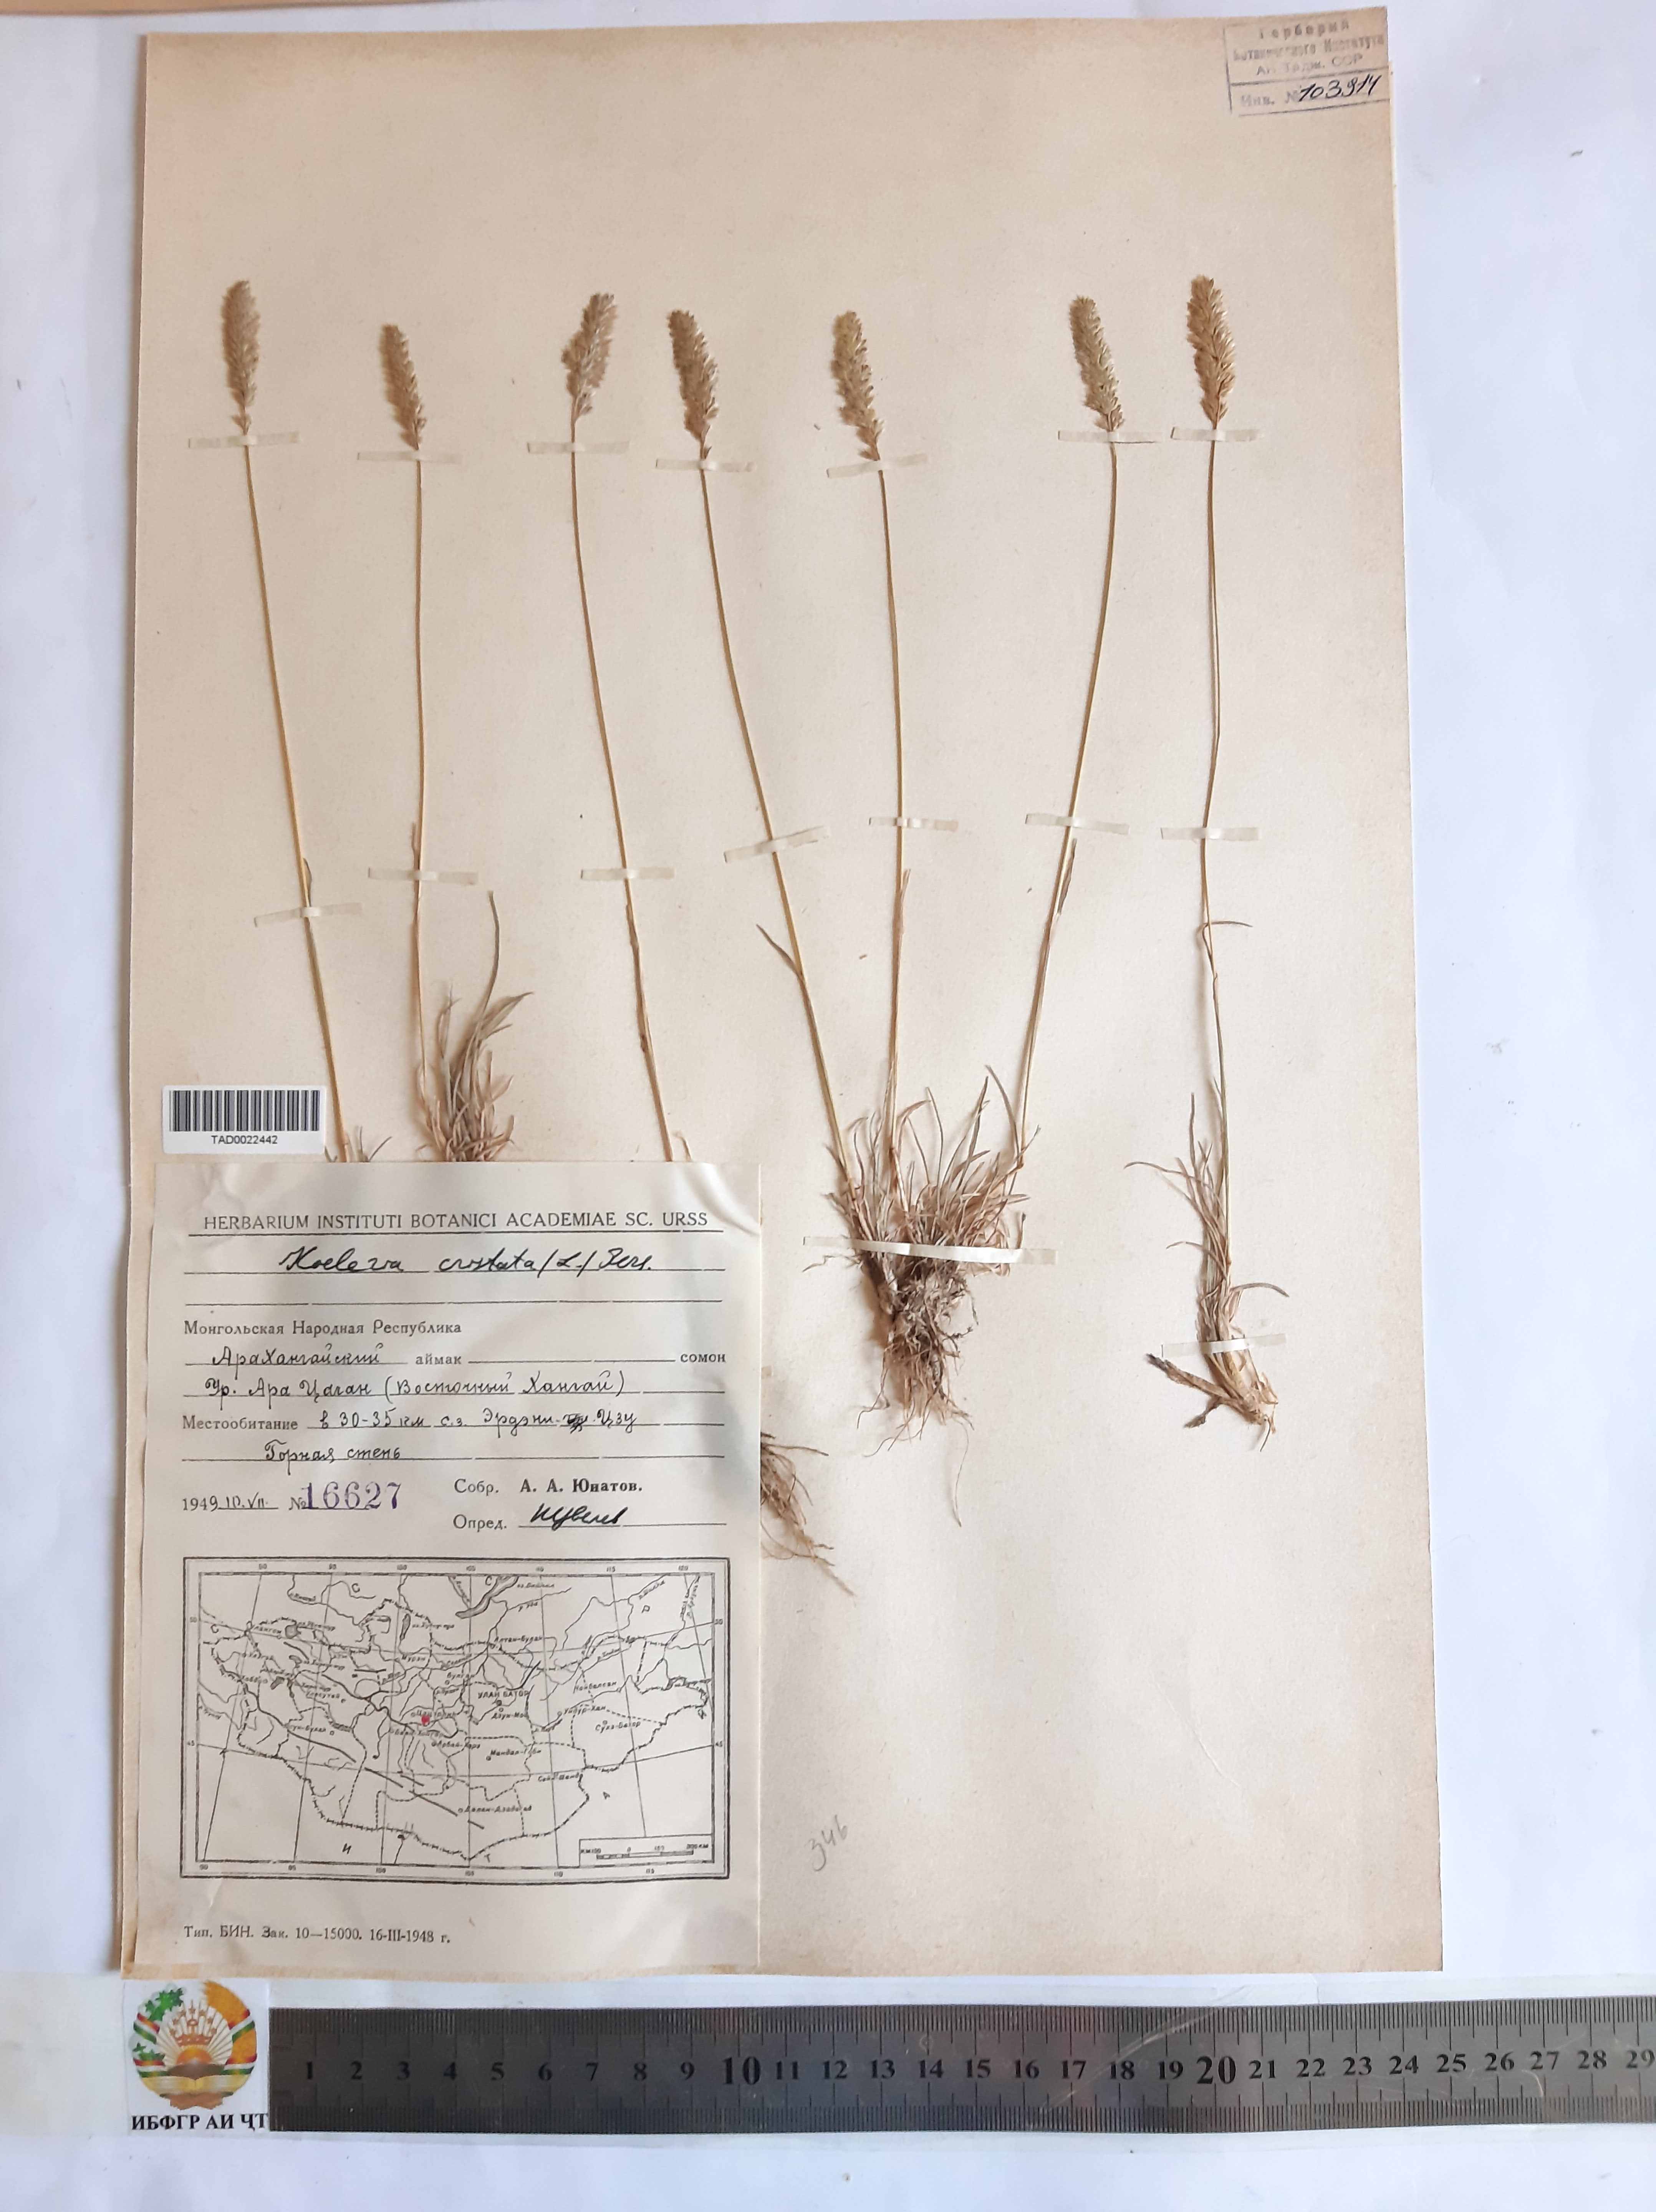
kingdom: Plantae
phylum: Tracheophyta
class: Liliopsida
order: Poales
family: Poaceae
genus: Koeleria
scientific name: Koeleria pyramidata
